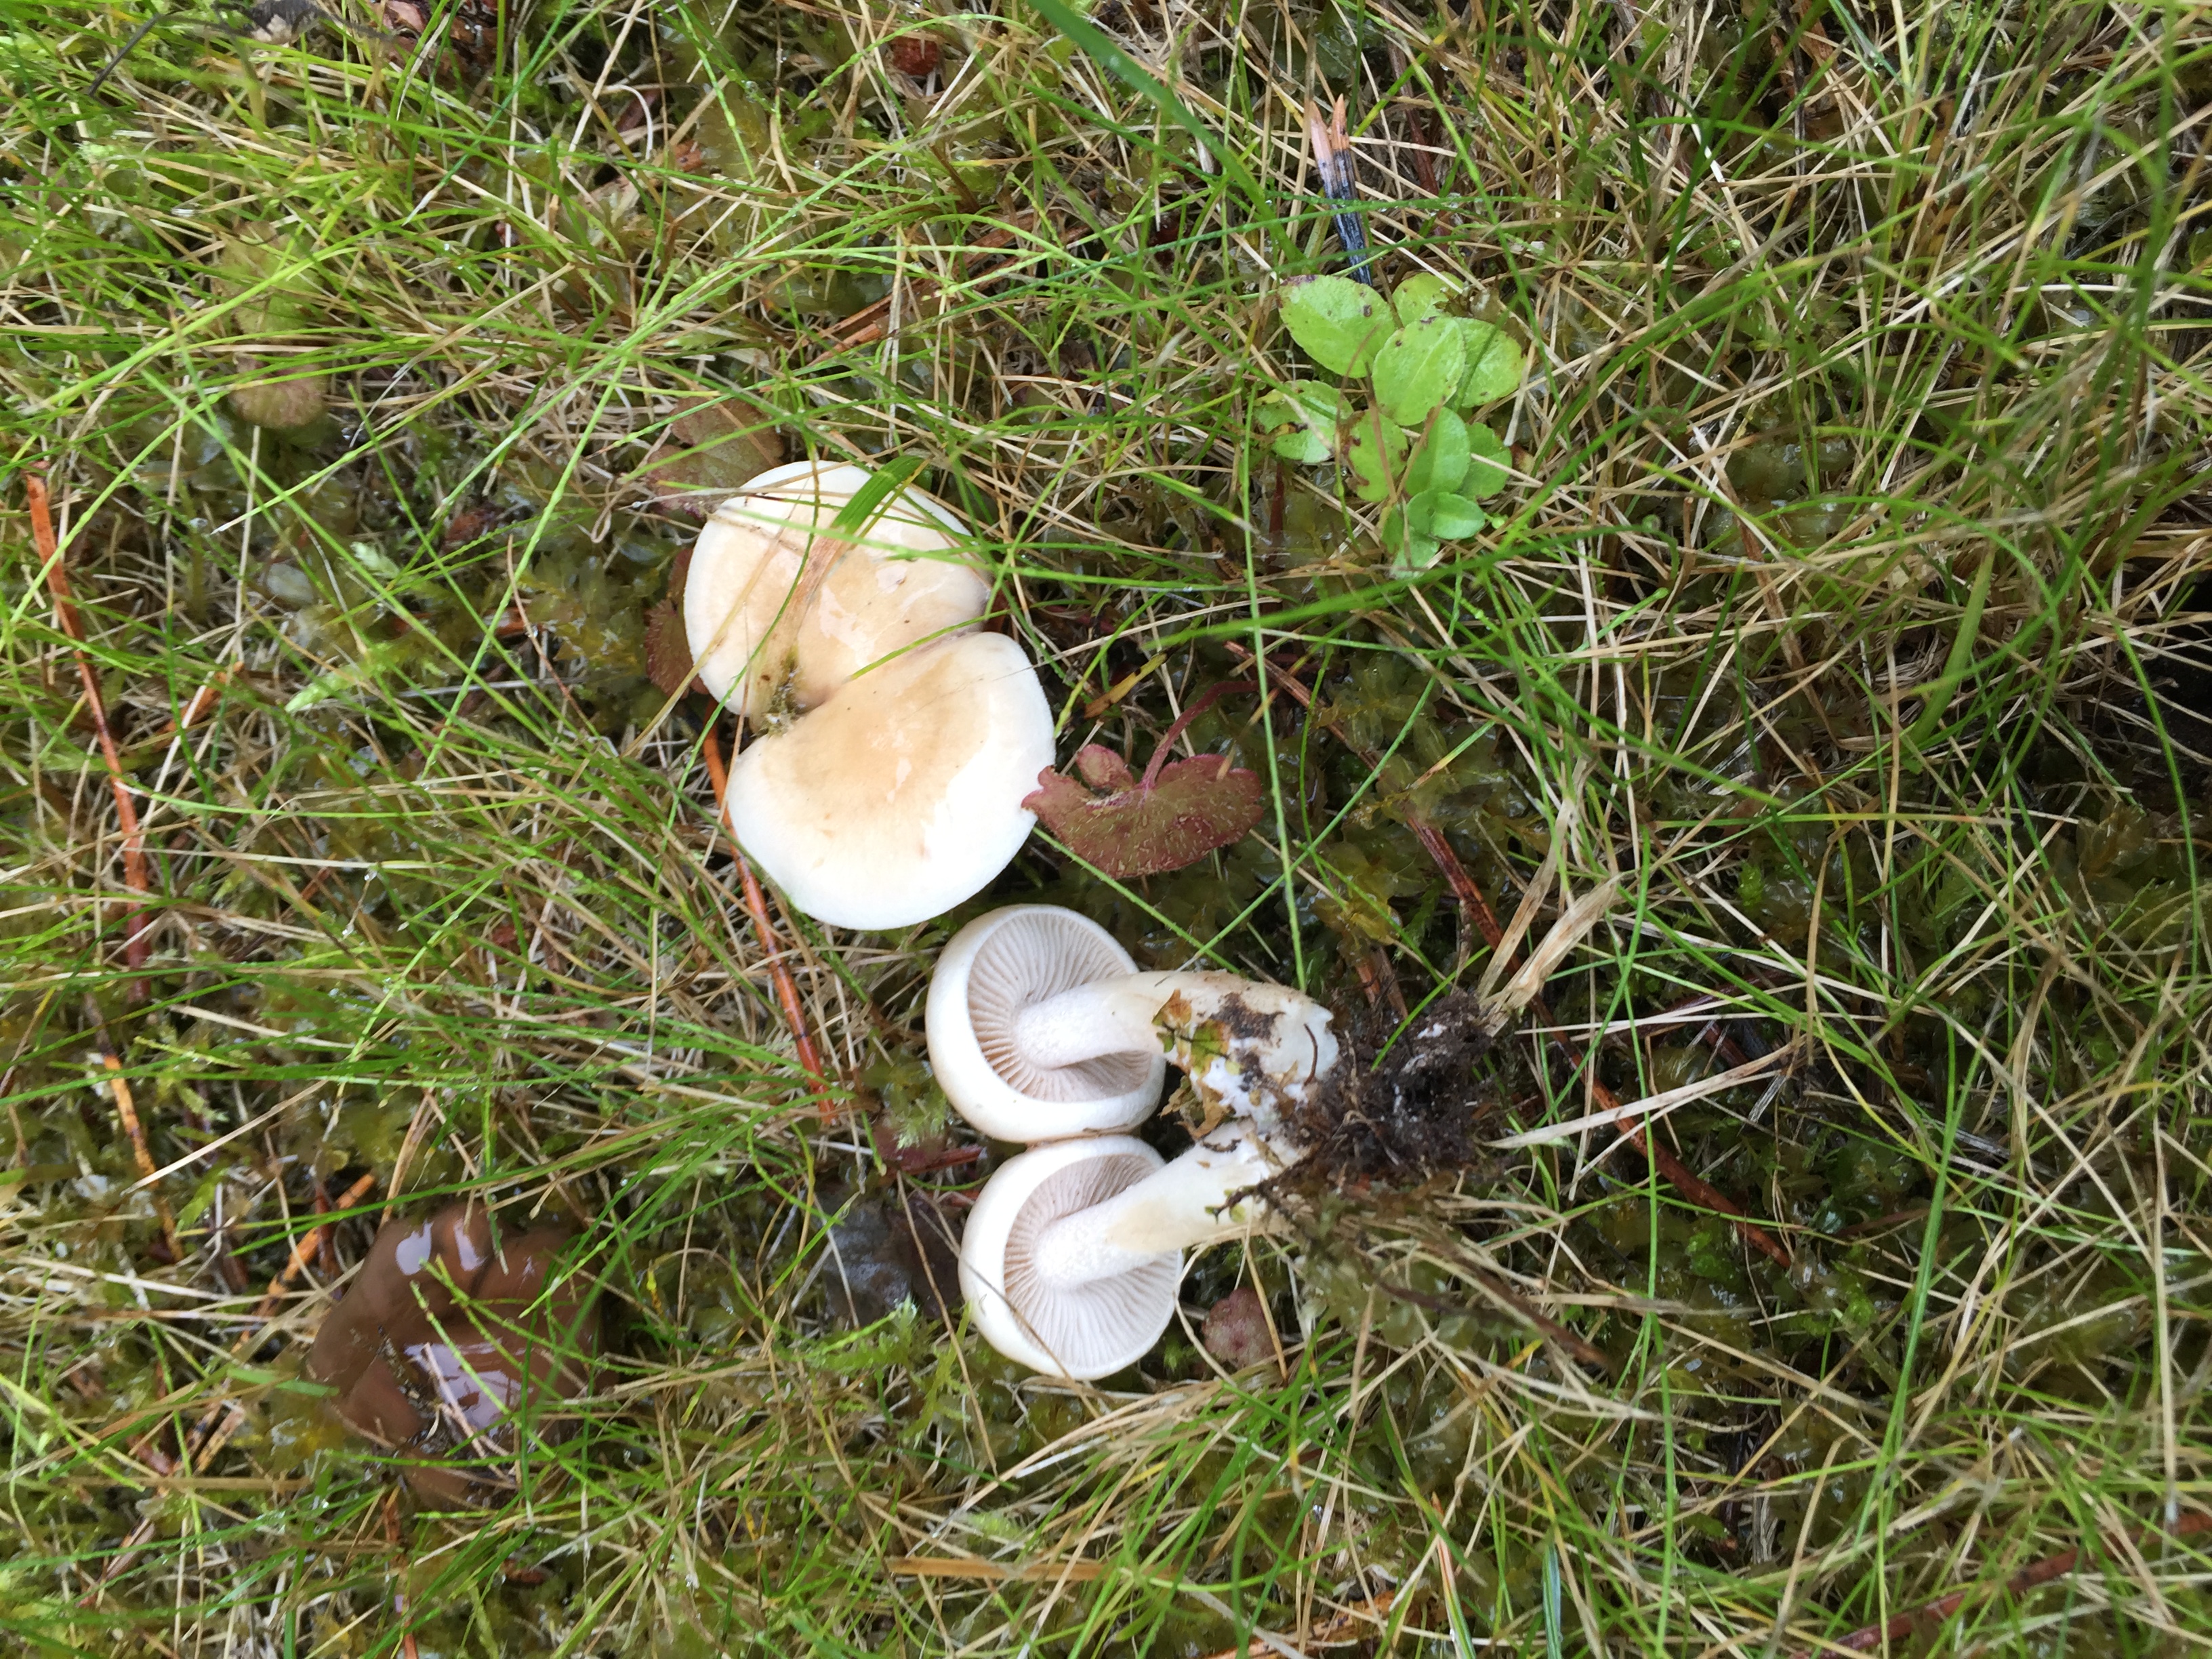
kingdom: Fungi
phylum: Basidiomycota
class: Agaricomycetes
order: Agaricales
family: Hymenogastraceae
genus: Hebeloma
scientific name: Hebeloma
